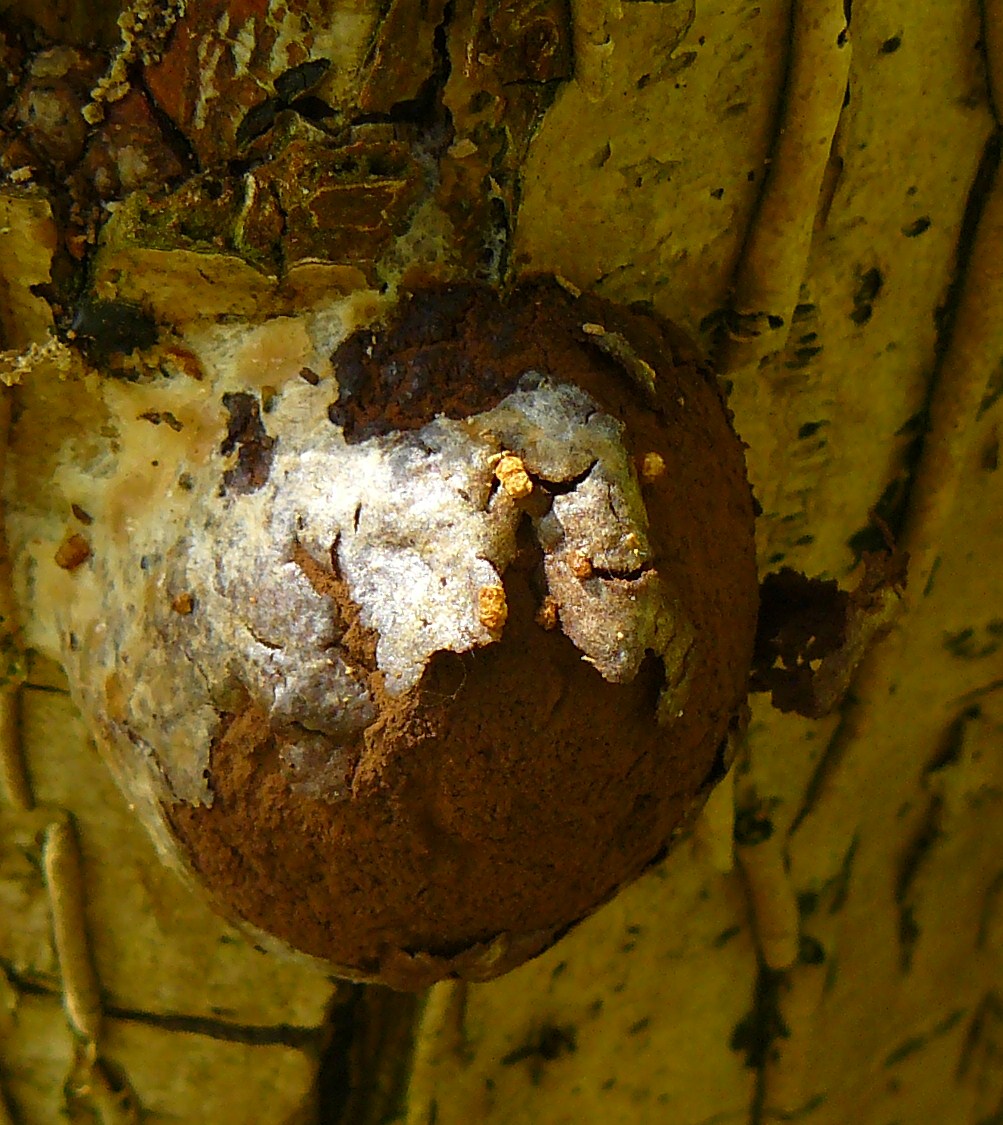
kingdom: Protozoa
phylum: Mycetozoa
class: Myxomycetes
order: Cribrariales
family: Tubiferaceae
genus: Reticularia
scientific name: Reticularia lycoperdon
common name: skinnende støvpude
